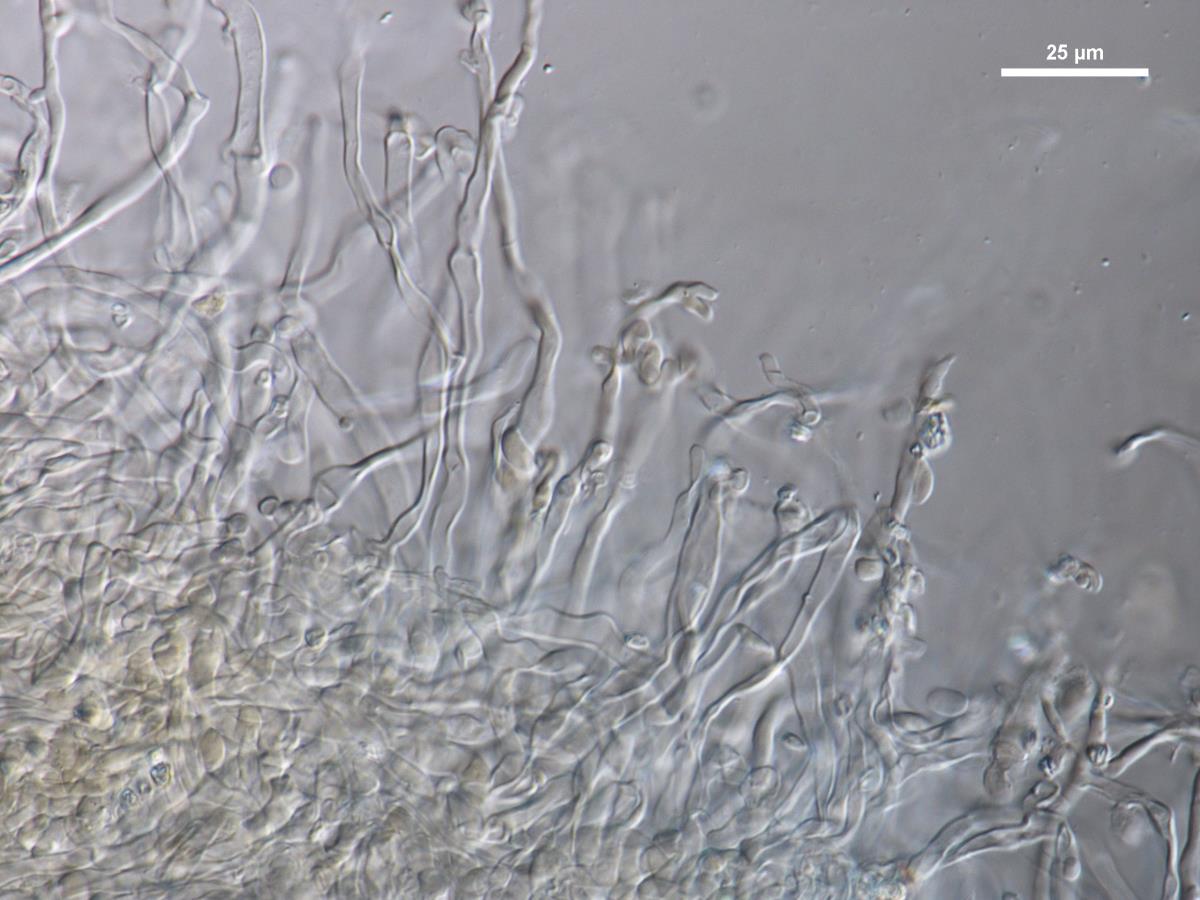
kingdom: Fungi
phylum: Basidiomycota
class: Agaricomycetes
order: Agaricales
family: Pleurotaceae
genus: Pleurotus
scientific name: Pleurotus purpureo-olivaceus
